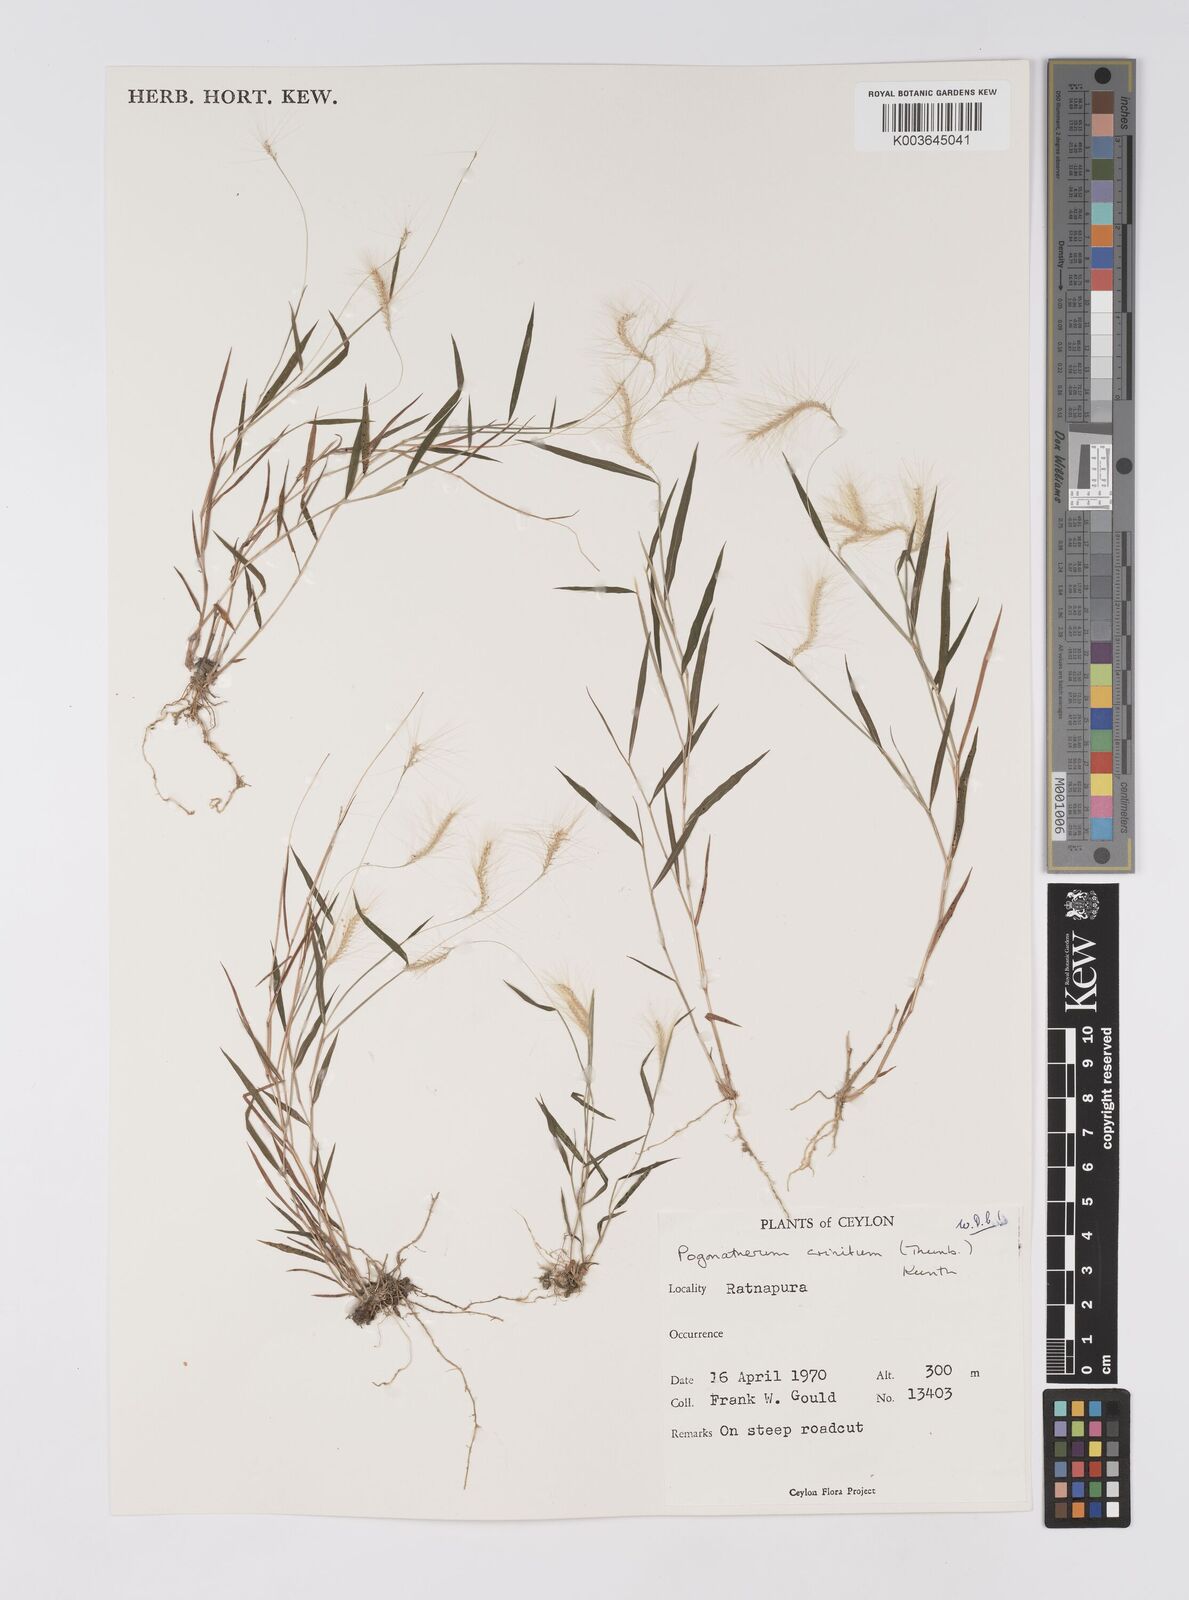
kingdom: Plantae
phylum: Tracheophyta
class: Liliopsida
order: Poales
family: Poaceae
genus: Pogonatherum
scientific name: Pogonatherum crinitum
